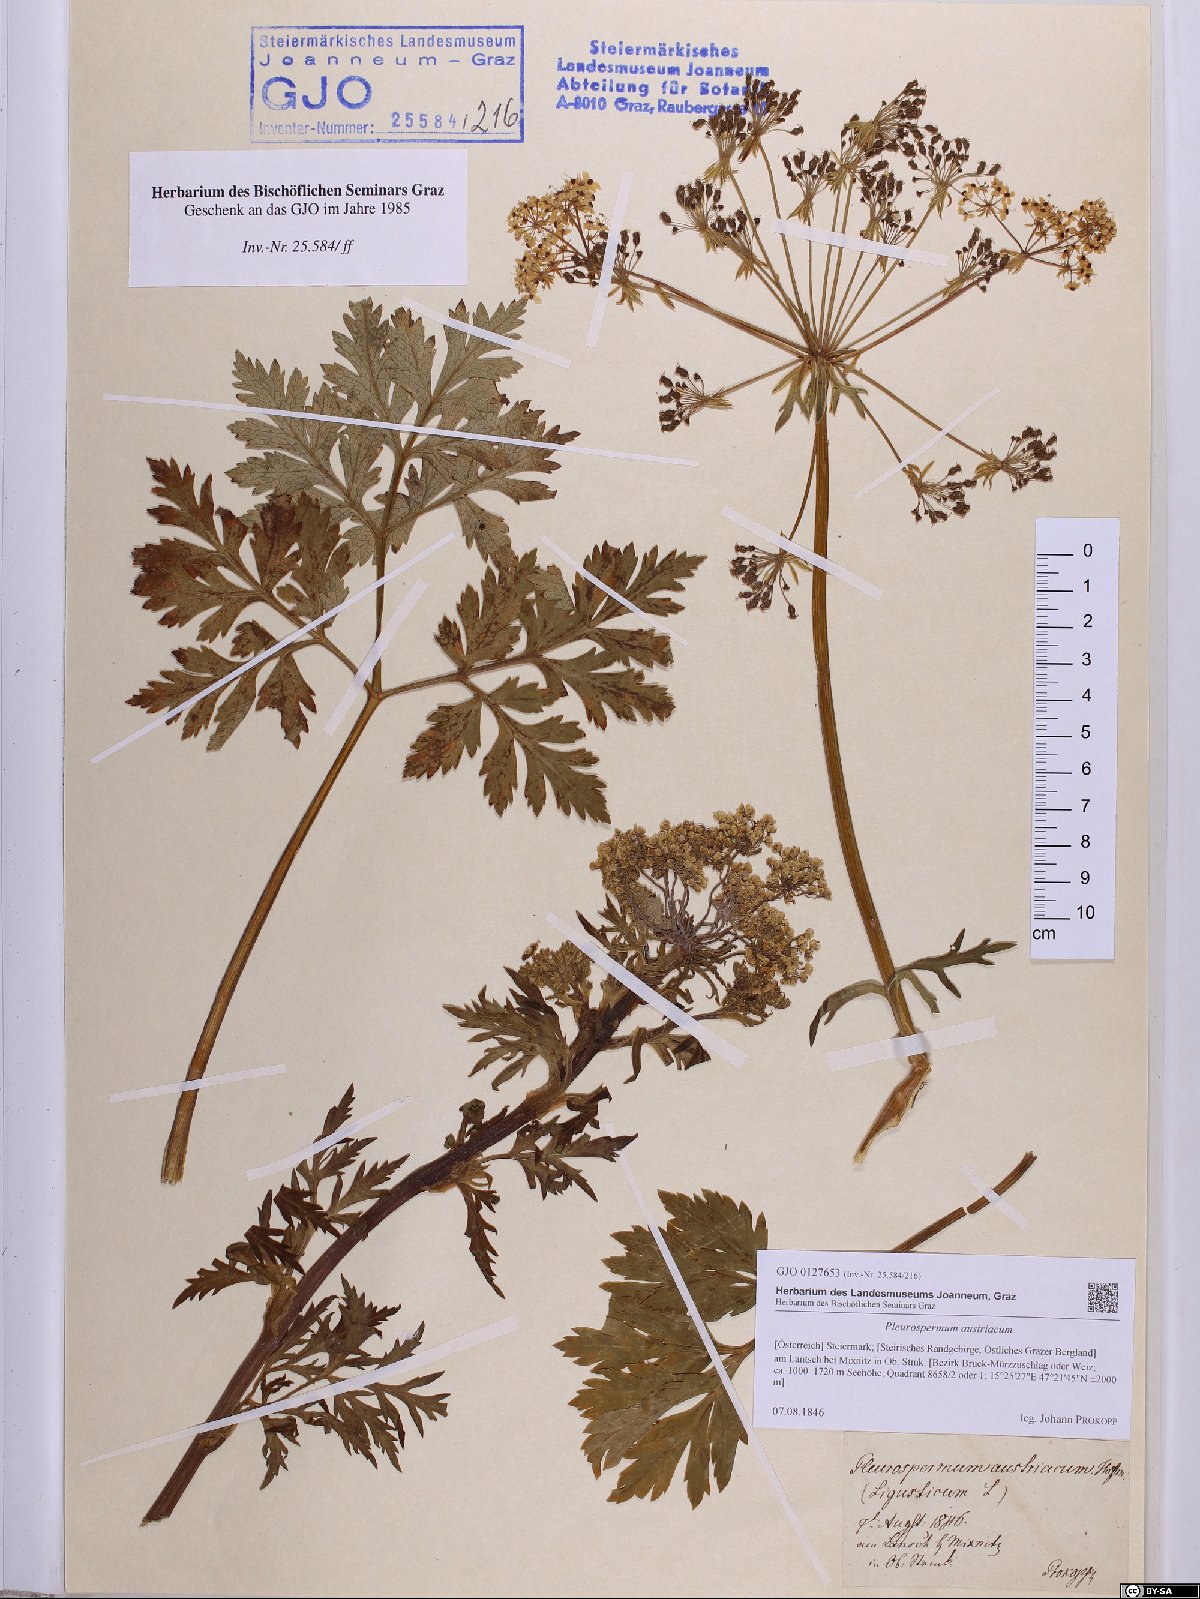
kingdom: Plantae
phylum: Tracheophyta
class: Magnoliopsida
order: Apiales
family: Apiaceae
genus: Pleurospermum
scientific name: Pleurospermum austriacum
